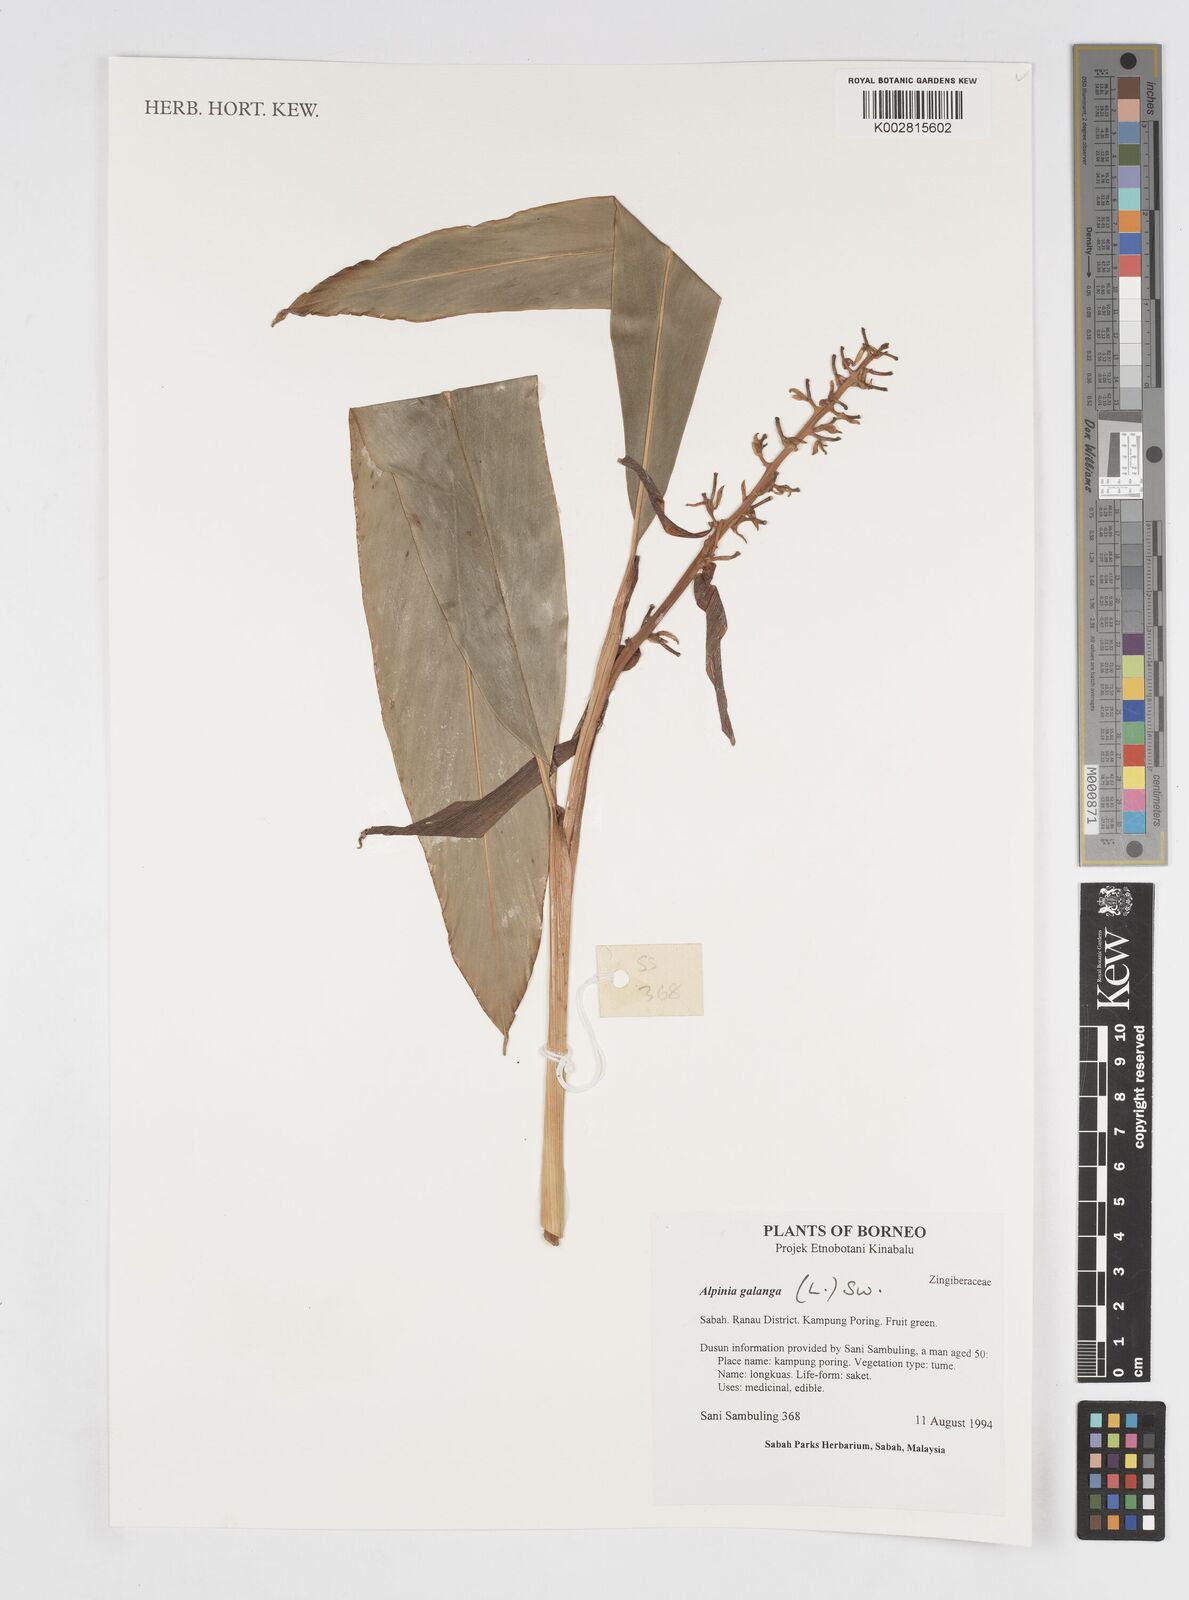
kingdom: Plantae
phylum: Tracheophyta
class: Liliopsida
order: Zingiberales
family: Zingiberaceae
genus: Alpinia
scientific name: Alpinia galanga
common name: Siamese-ginger
